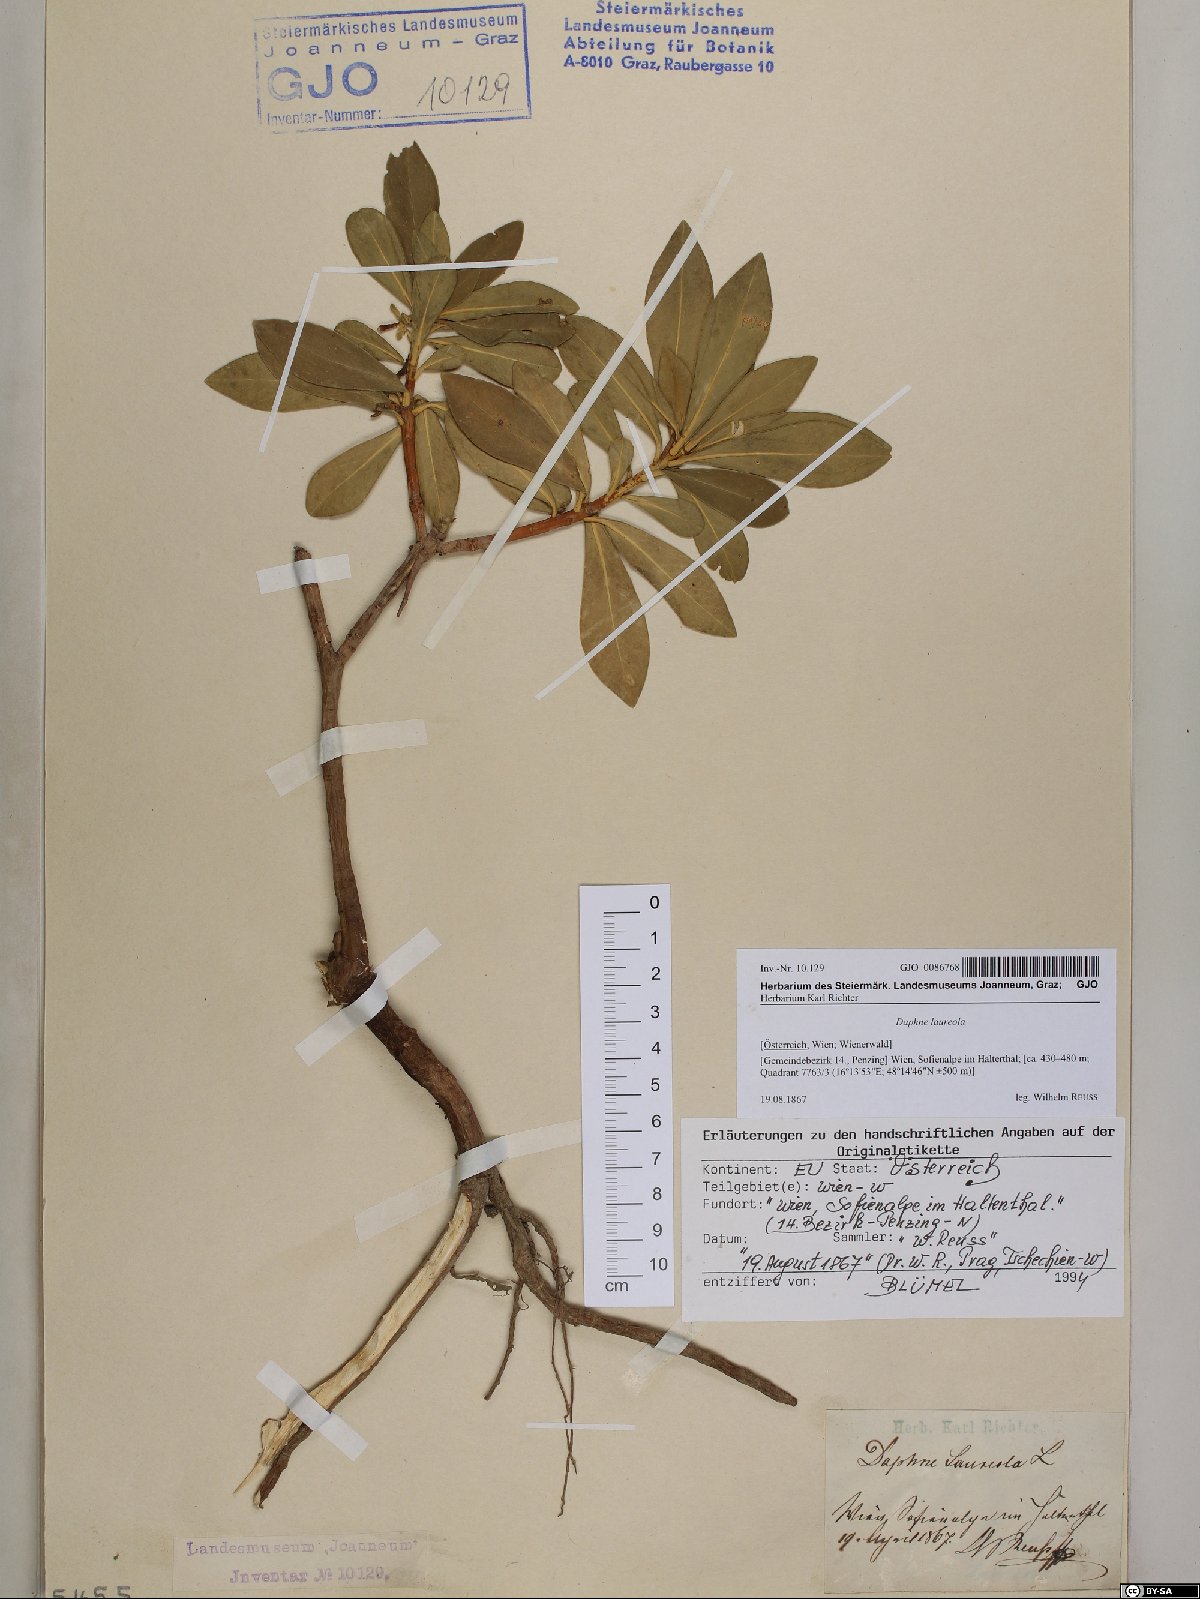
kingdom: Plantae
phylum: Tracheophyta
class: Magnoliopsida
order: Malvales
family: Thymelaeaceae
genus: Daphne
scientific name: Daphne laureola
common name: Spurge-laurel
